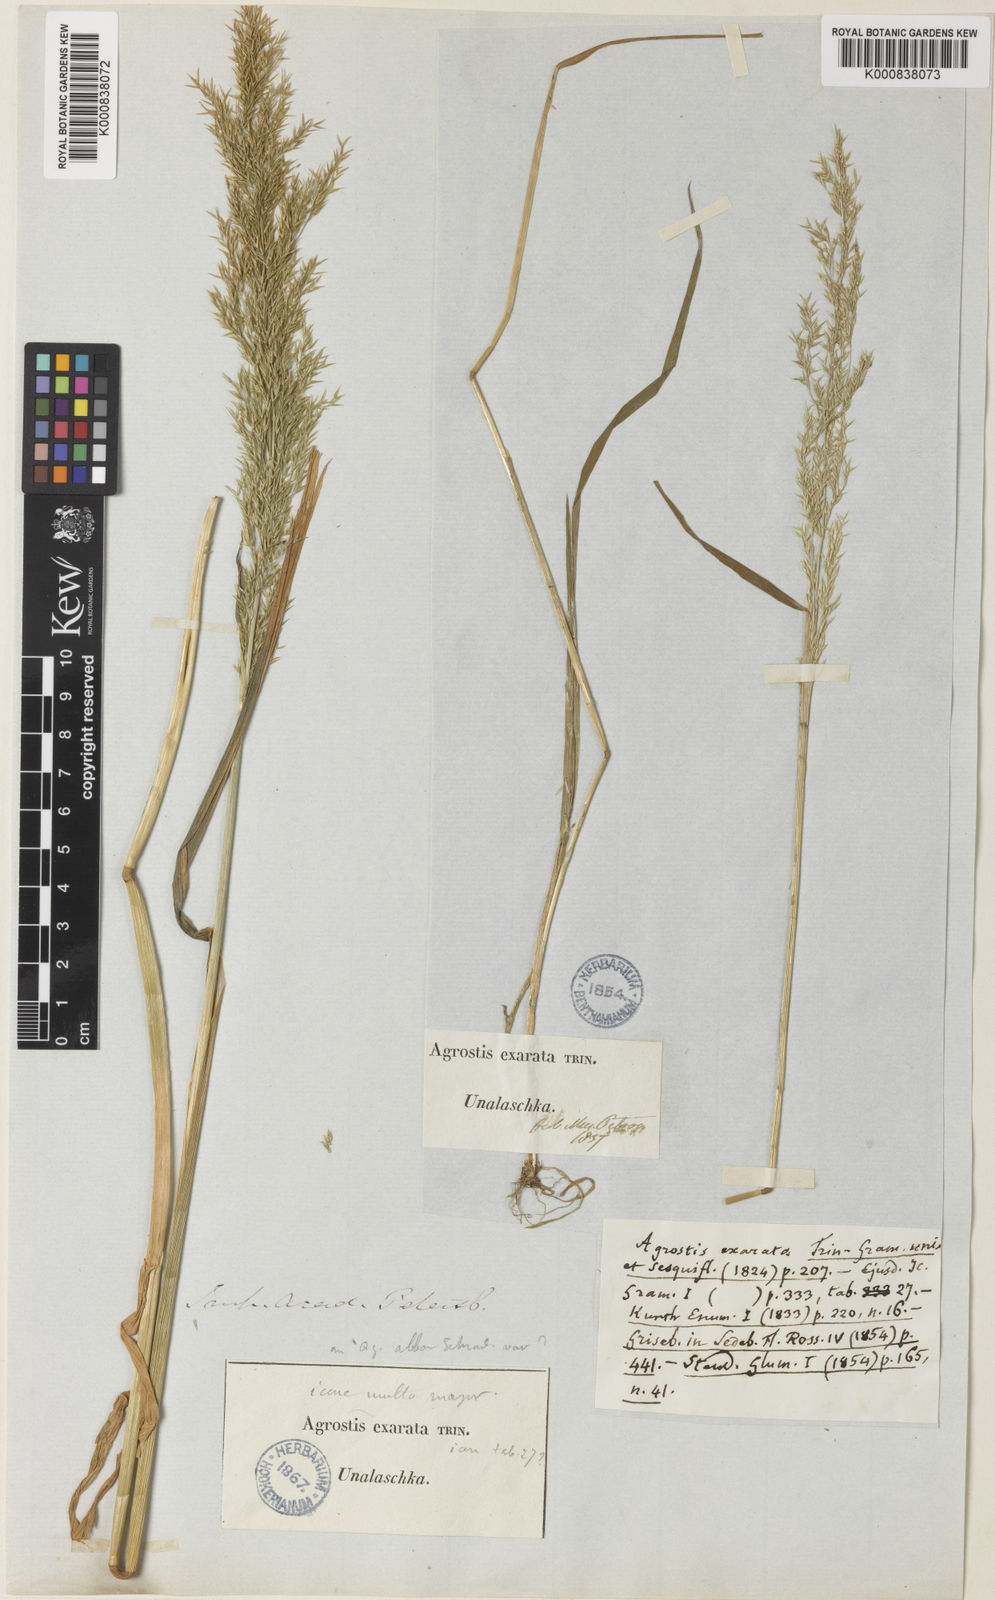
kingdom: Plantae
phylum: Tracheophyta
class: Liliopsida
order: Poales
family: Poaceae
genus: Agrostis
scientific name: Agrostis exarata
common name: Spike bent
